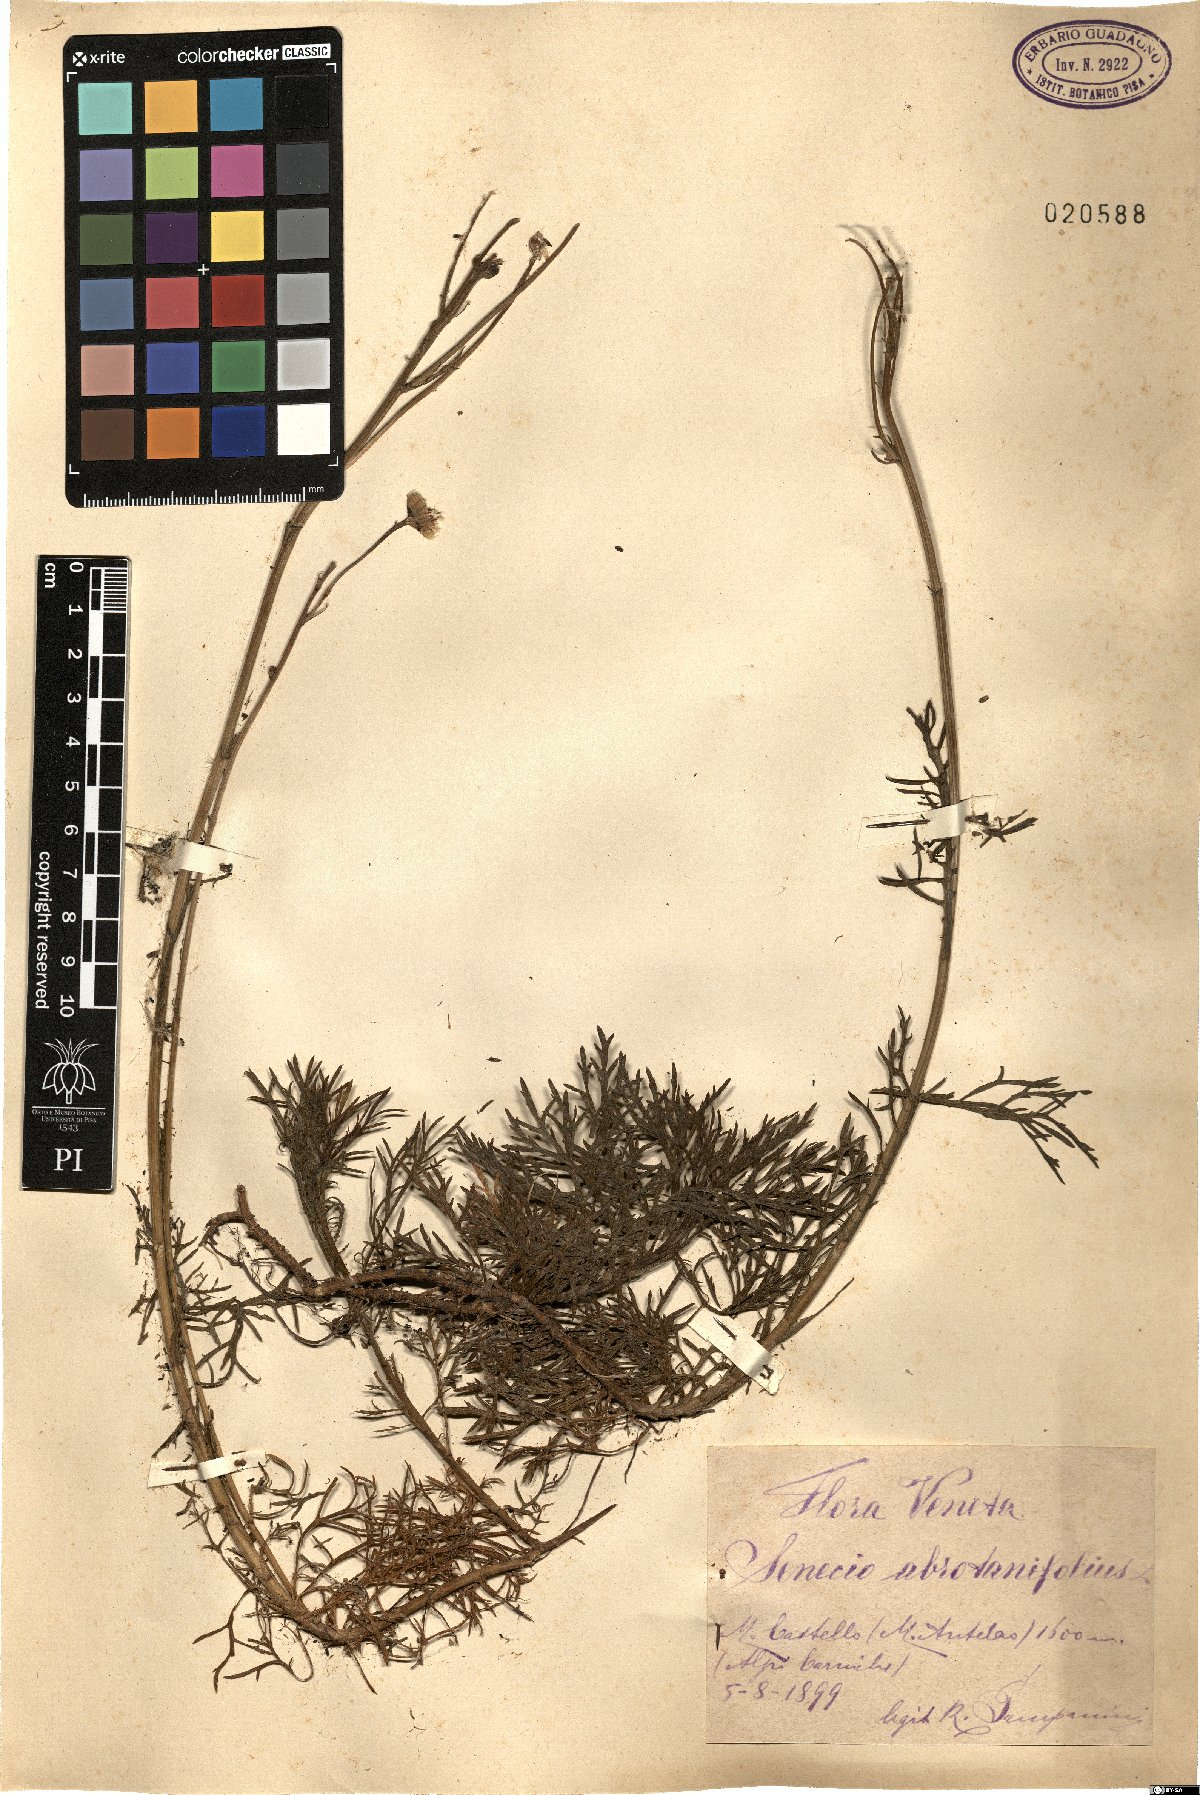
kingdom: Plantae
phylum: Tracheophyta
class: Magnoliopsida
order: Asterales
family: Asteraceae
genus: Jacobaea
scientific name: Jacobaea abrotanifolia
